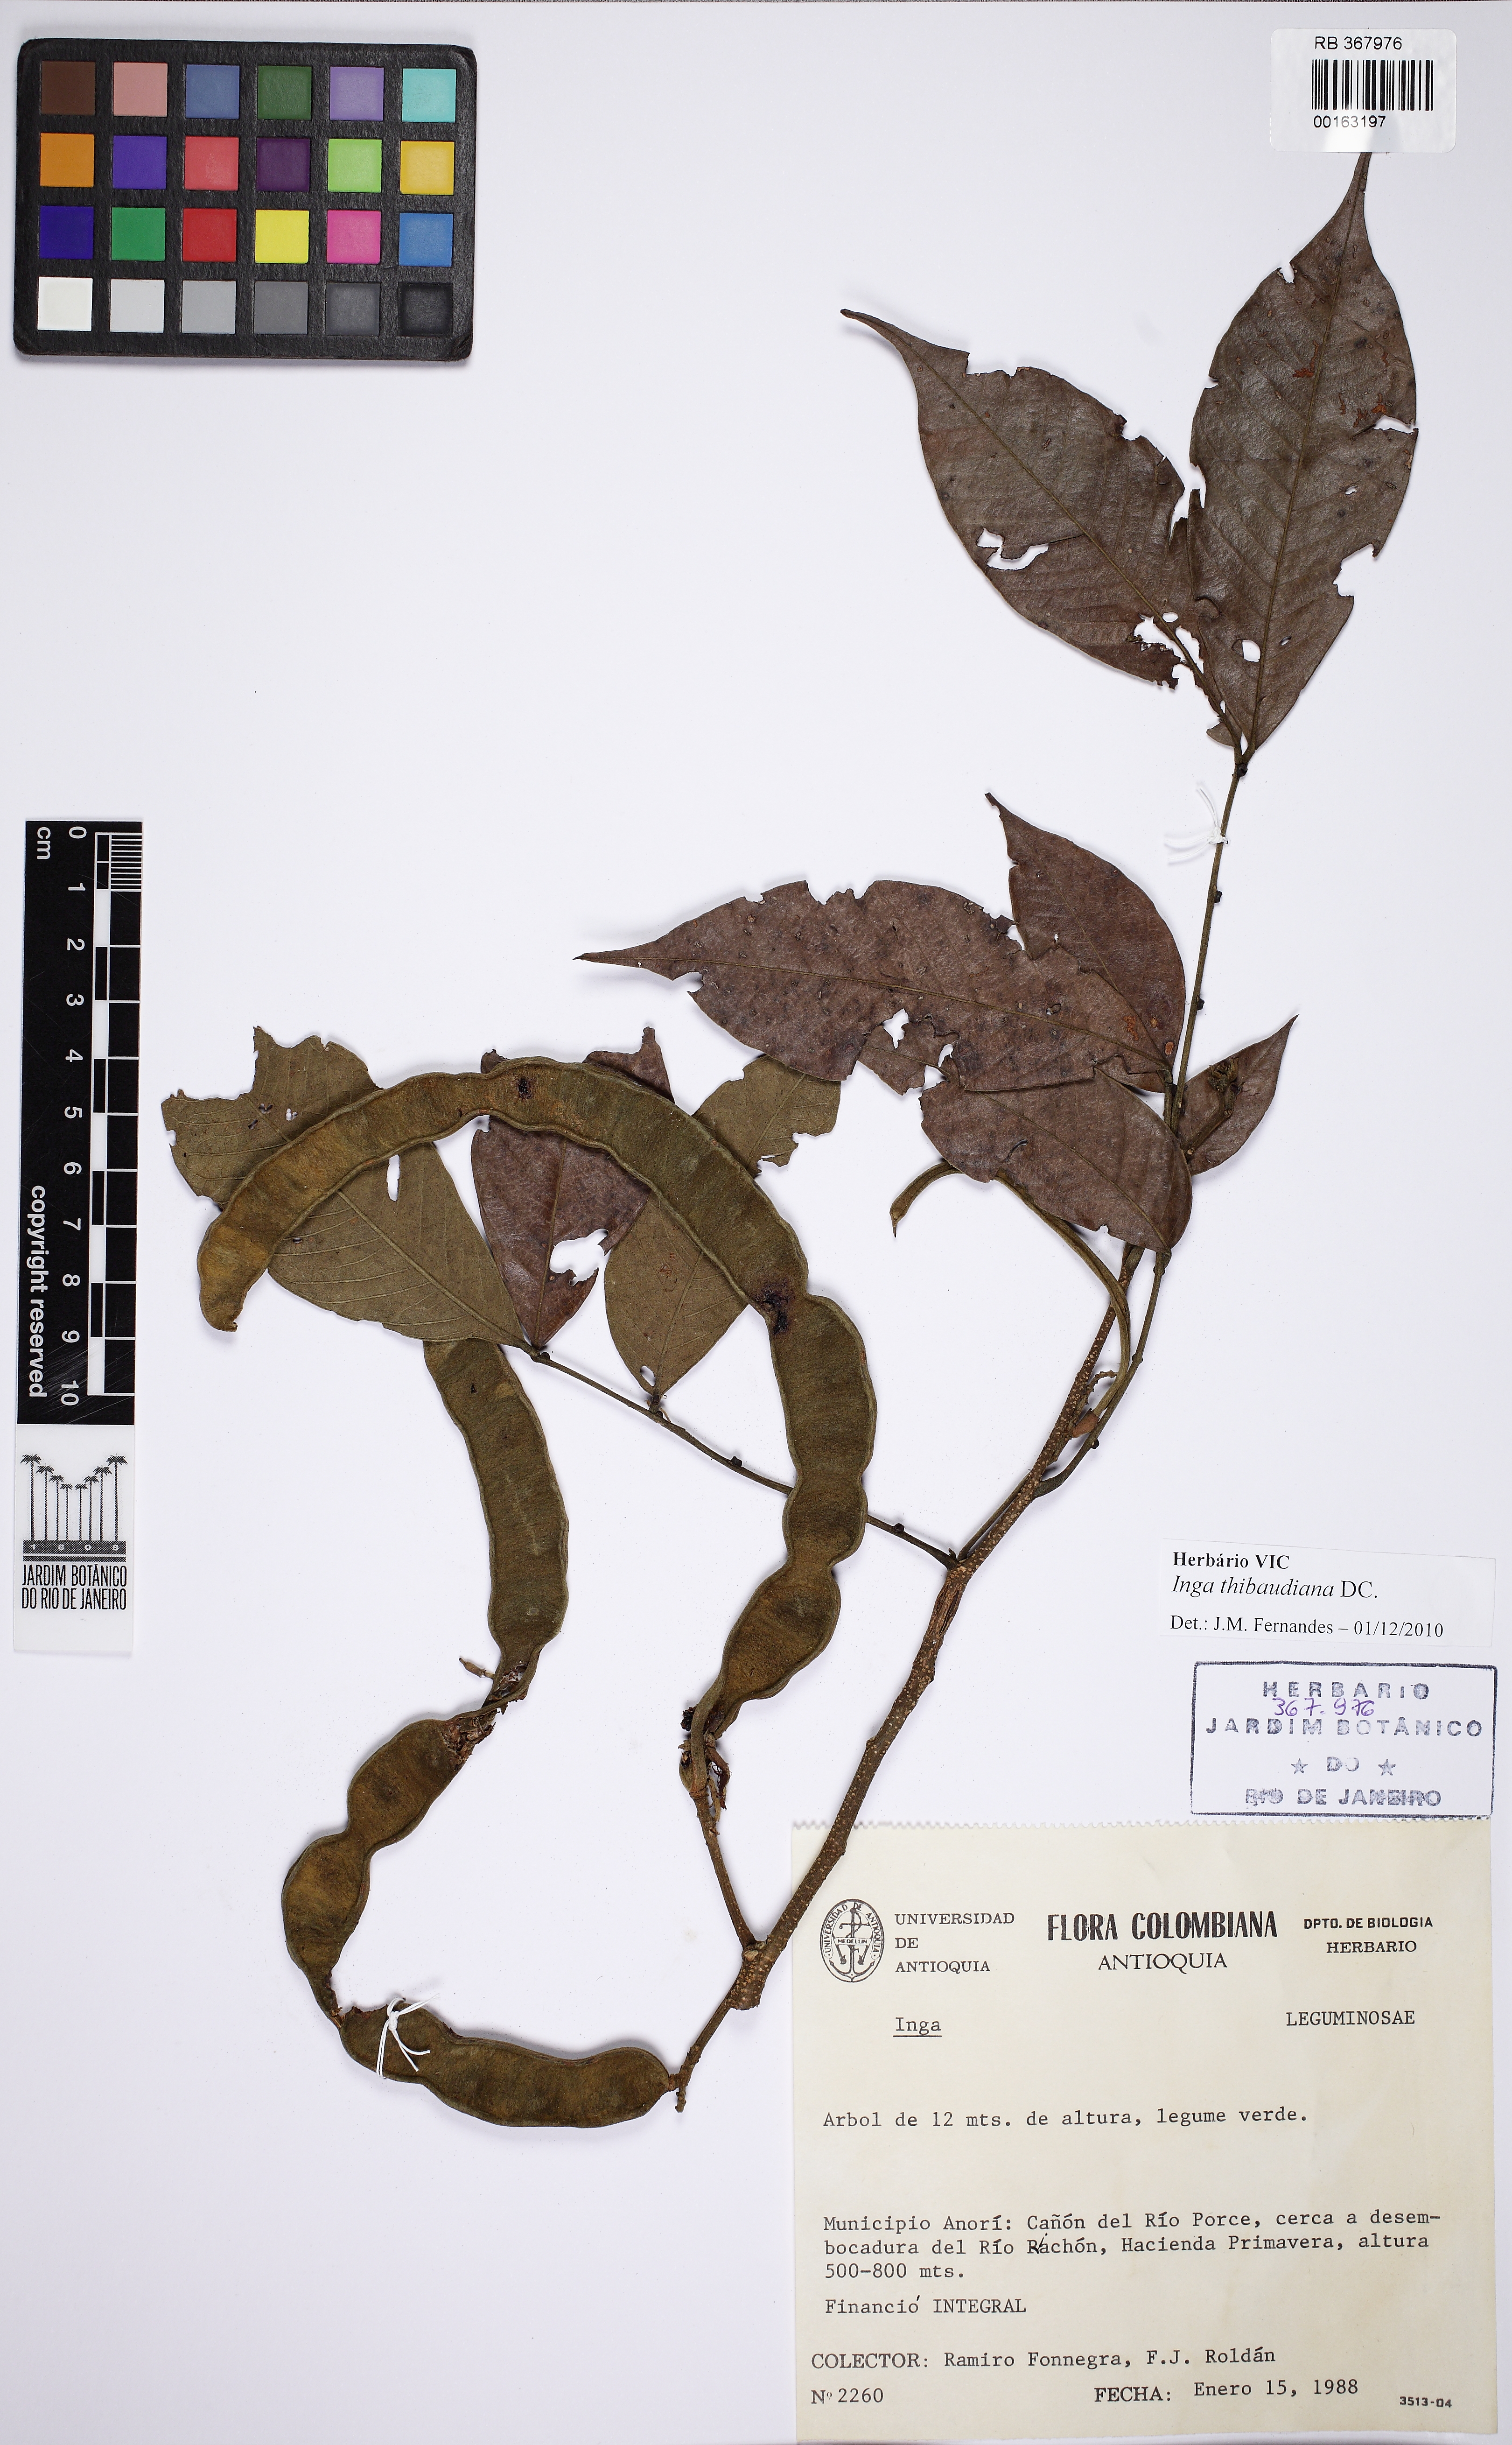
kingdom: Plantae
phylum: Tracheophyta
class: Magnoliopsida
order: Fabales
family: Fabaceae
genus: Inga
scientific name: Inga thibaudiana
